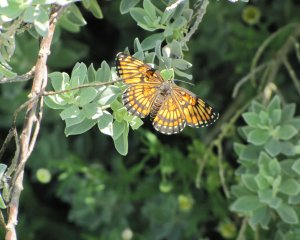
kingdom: Animalia
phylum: Arthropoda
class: Insecta
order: Lepidoptera
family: Nymphalidae
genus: Thessalia
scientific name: Thessalia theona
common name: Theona Checkerspot
